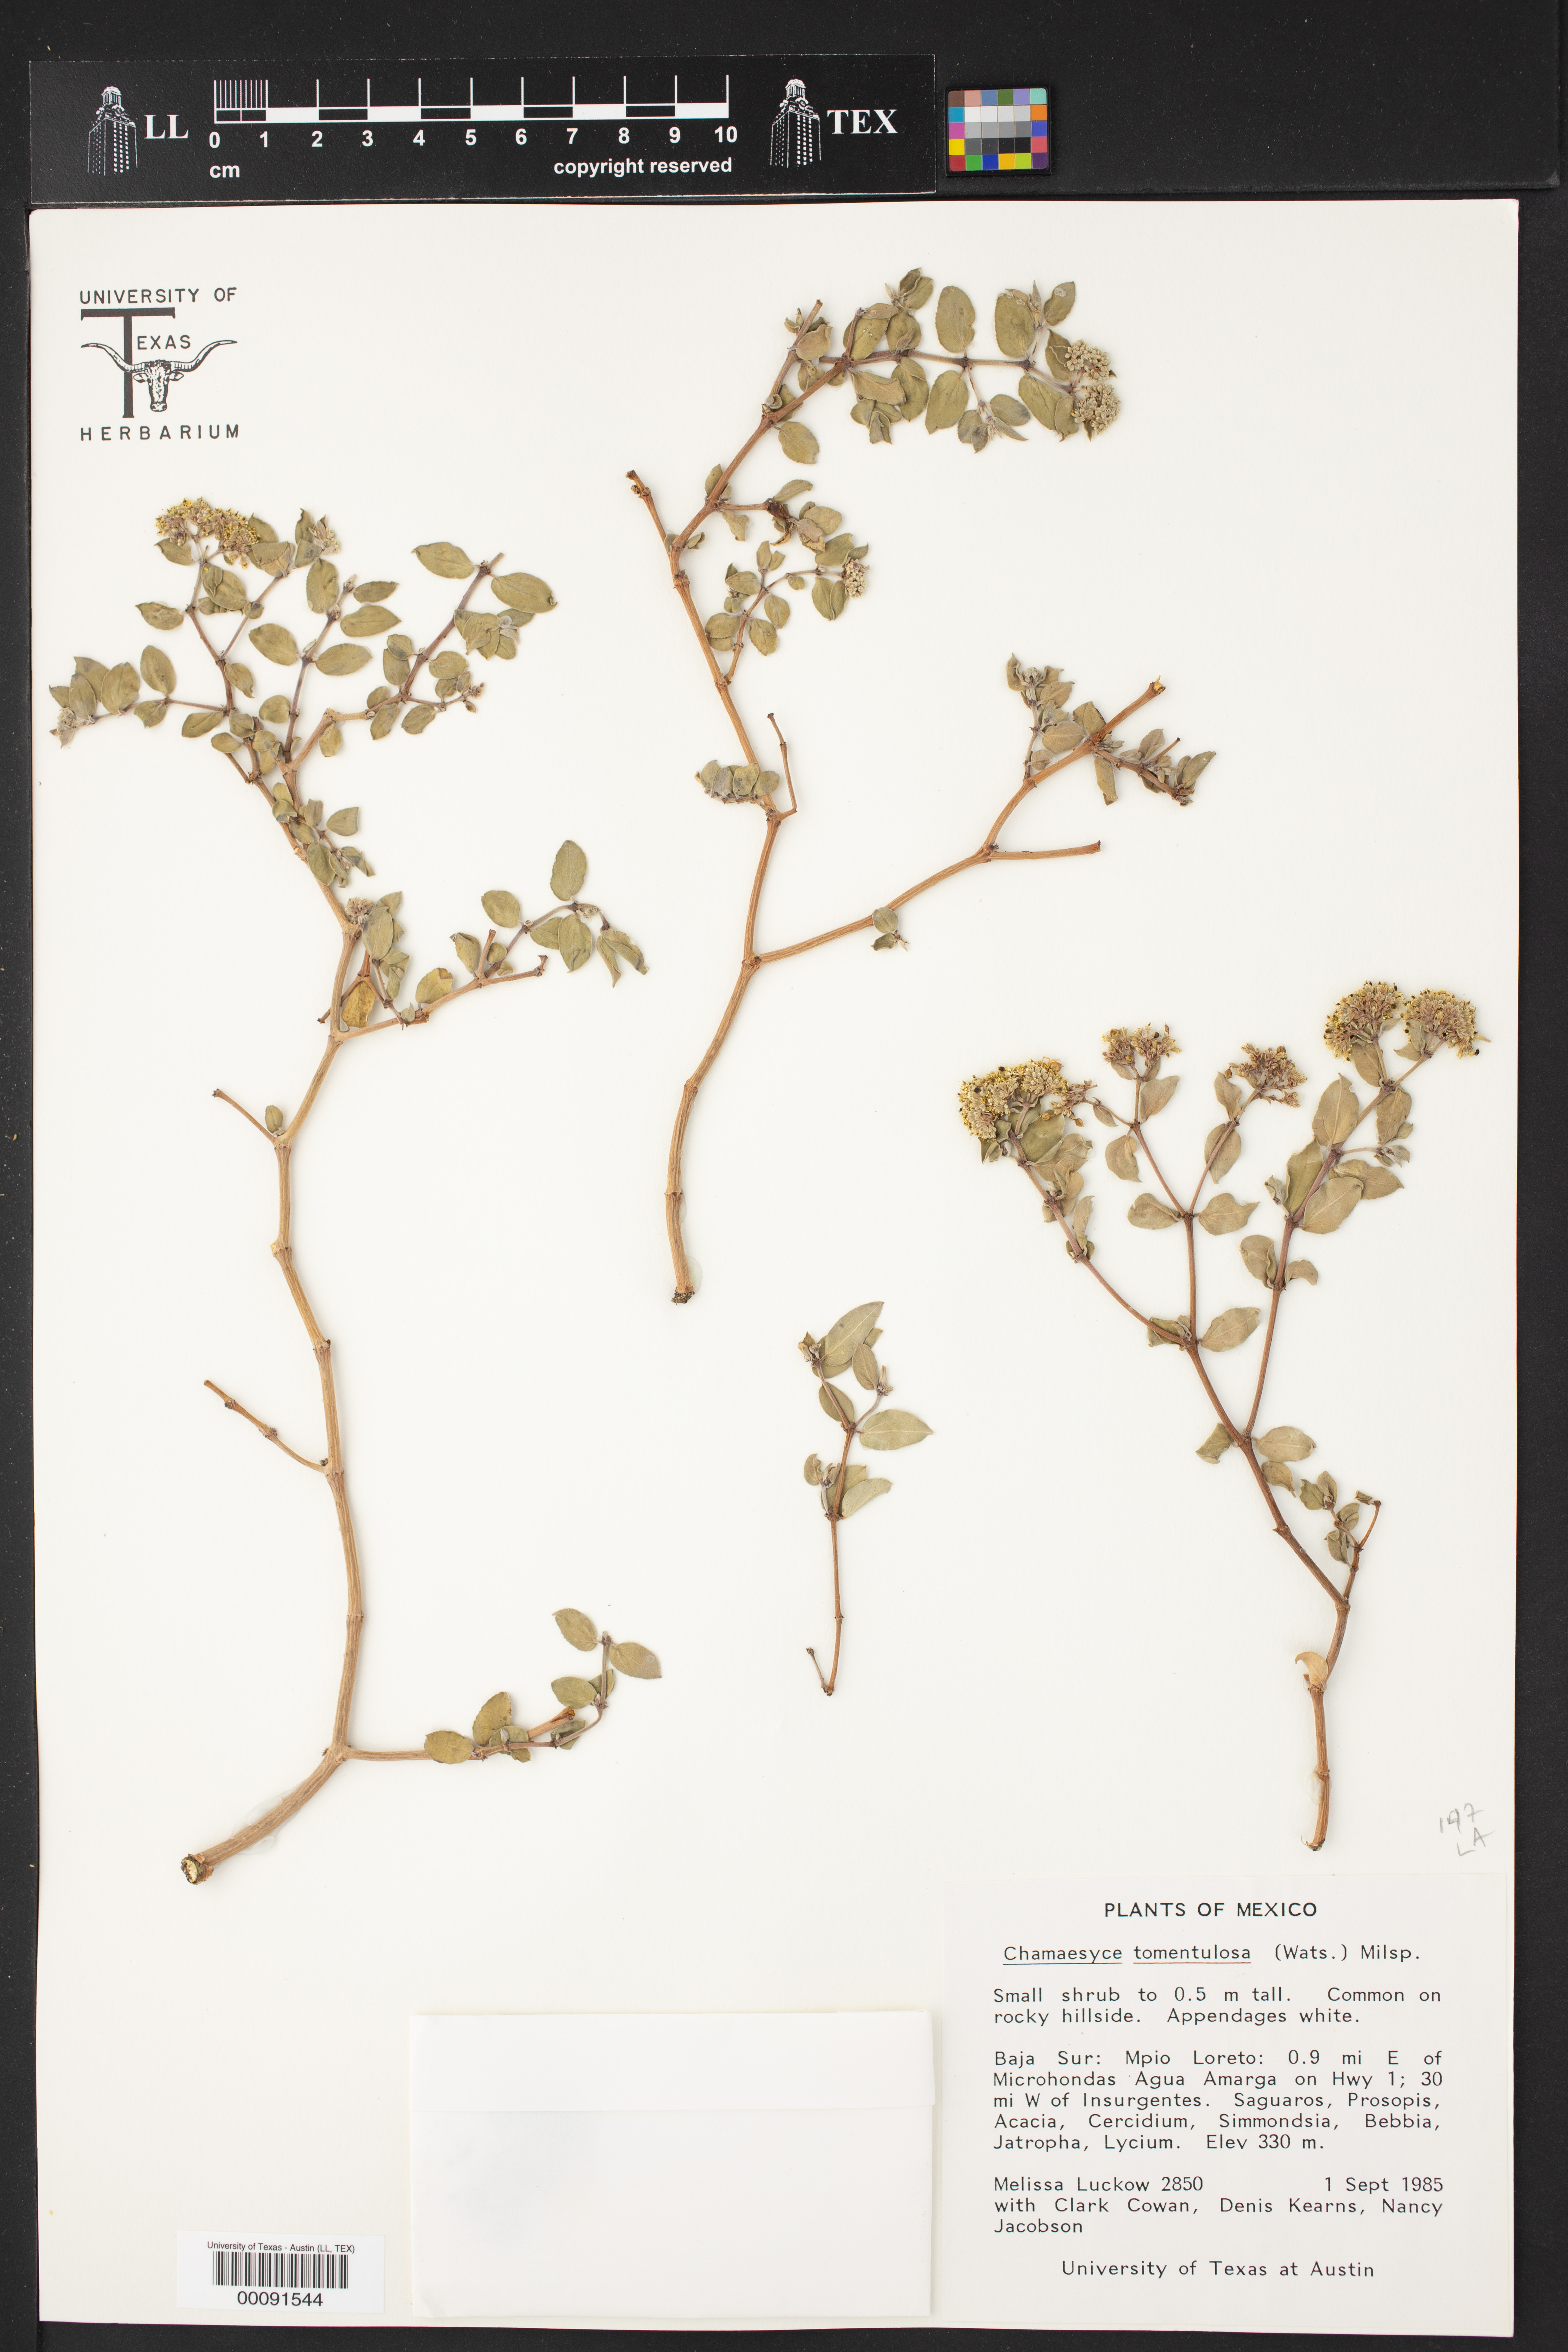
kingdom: Plantae
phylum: Tracheophyta
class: Magnoliopsida
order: Malpighiales
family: Euphorbiaceae
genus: Euphorbia
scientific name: Euphorbia tomentulosa
